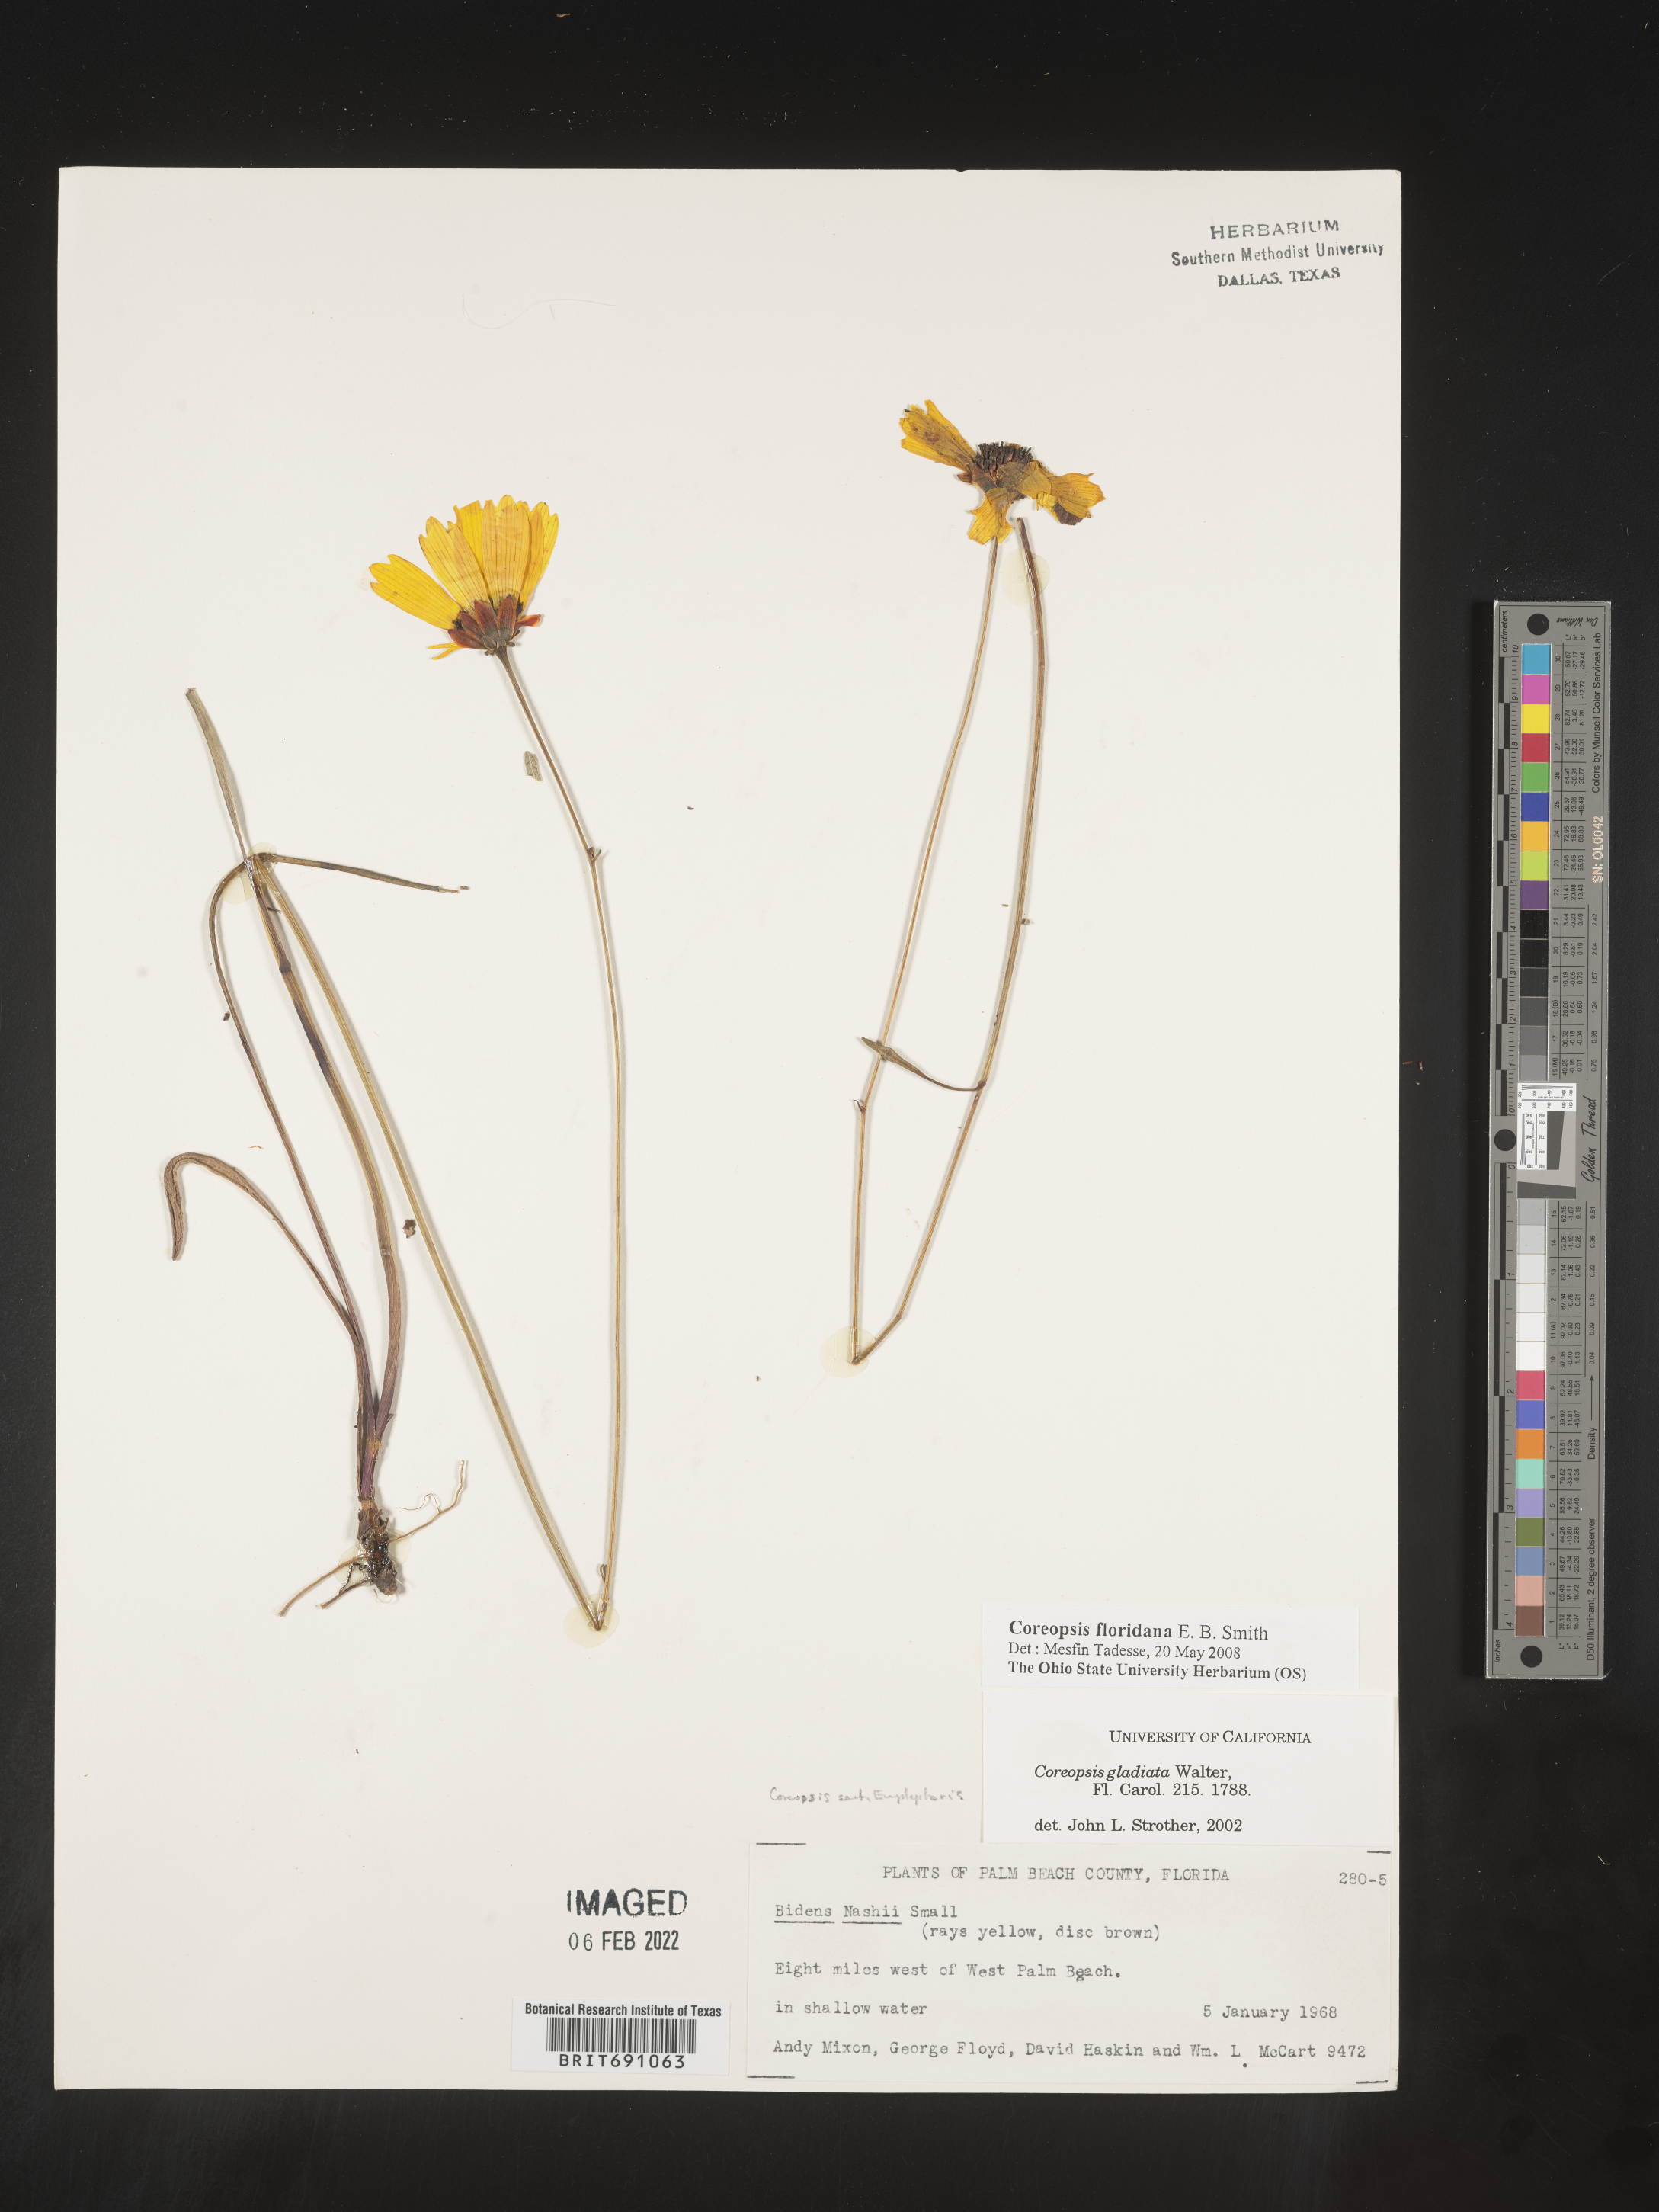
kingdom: Plantae
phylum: Tracheophyta
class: Magnoliopsida
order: Asterales
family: Asteraceae
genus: Coreopsis
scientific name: Coreopsis
